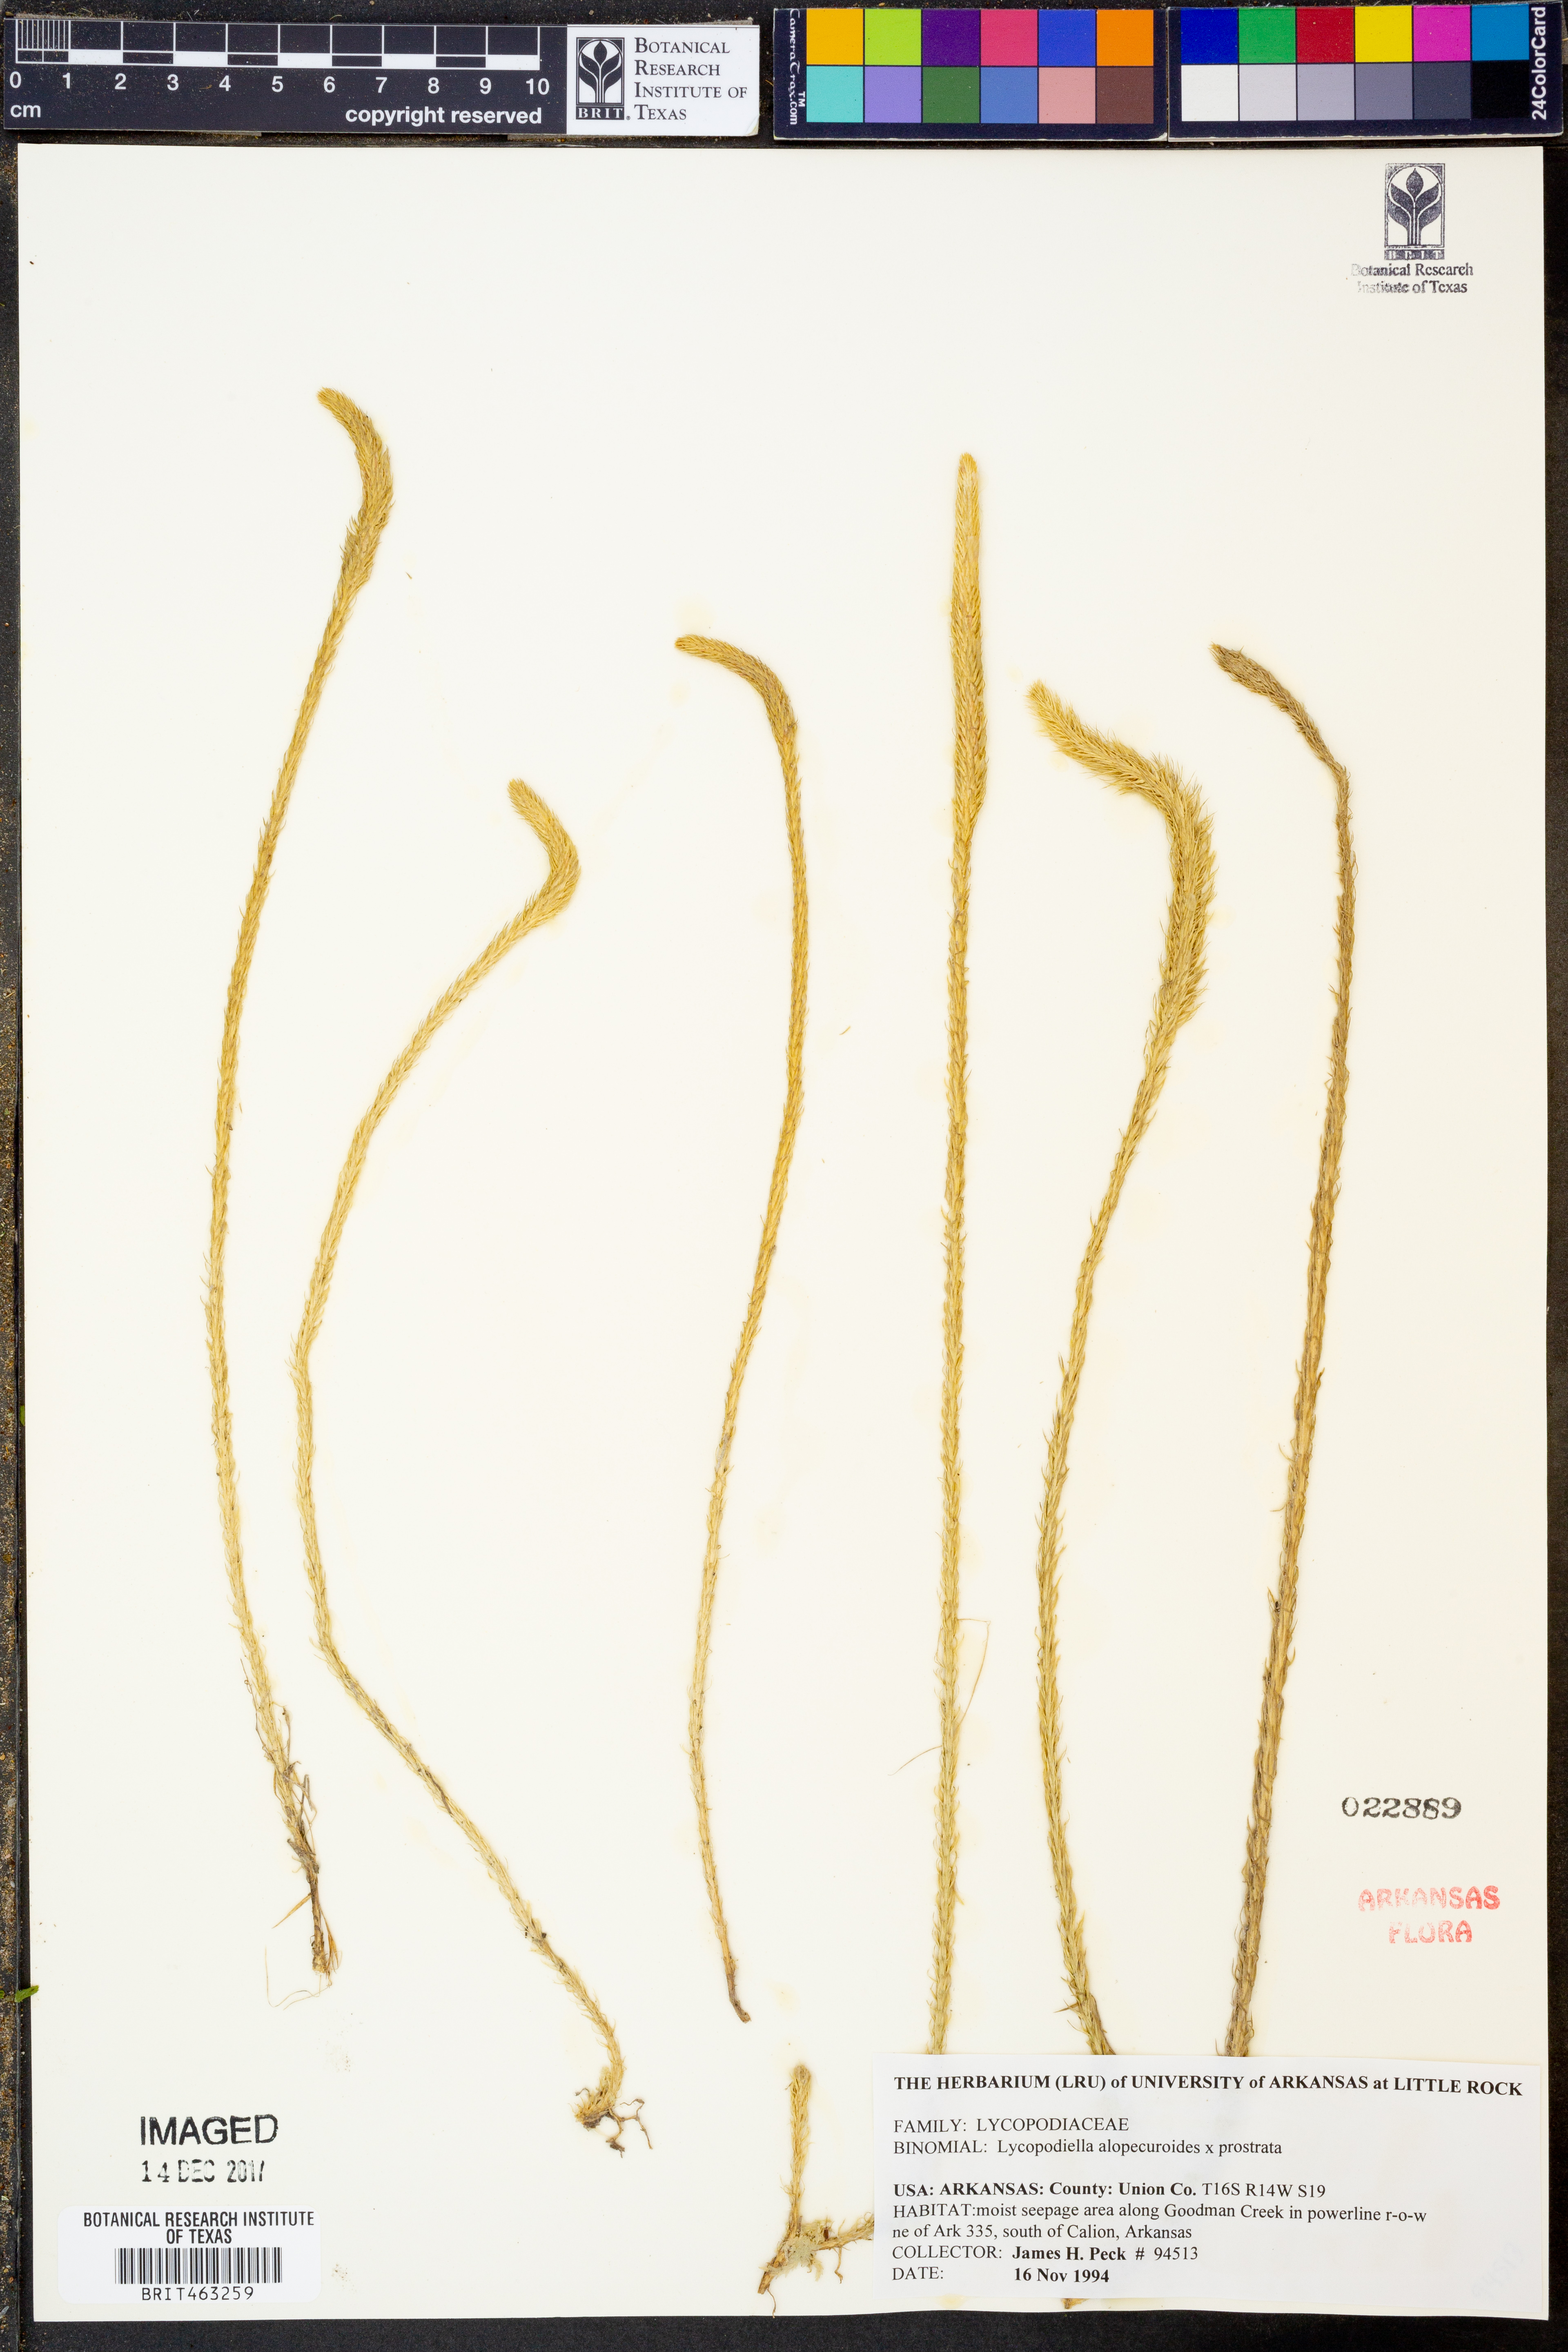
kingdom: Plantae
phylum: Tracheophyta
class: Lycopodiopsida
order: Lycopodiales
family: Lycopodiaceae
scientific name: Lycopodiaceae
